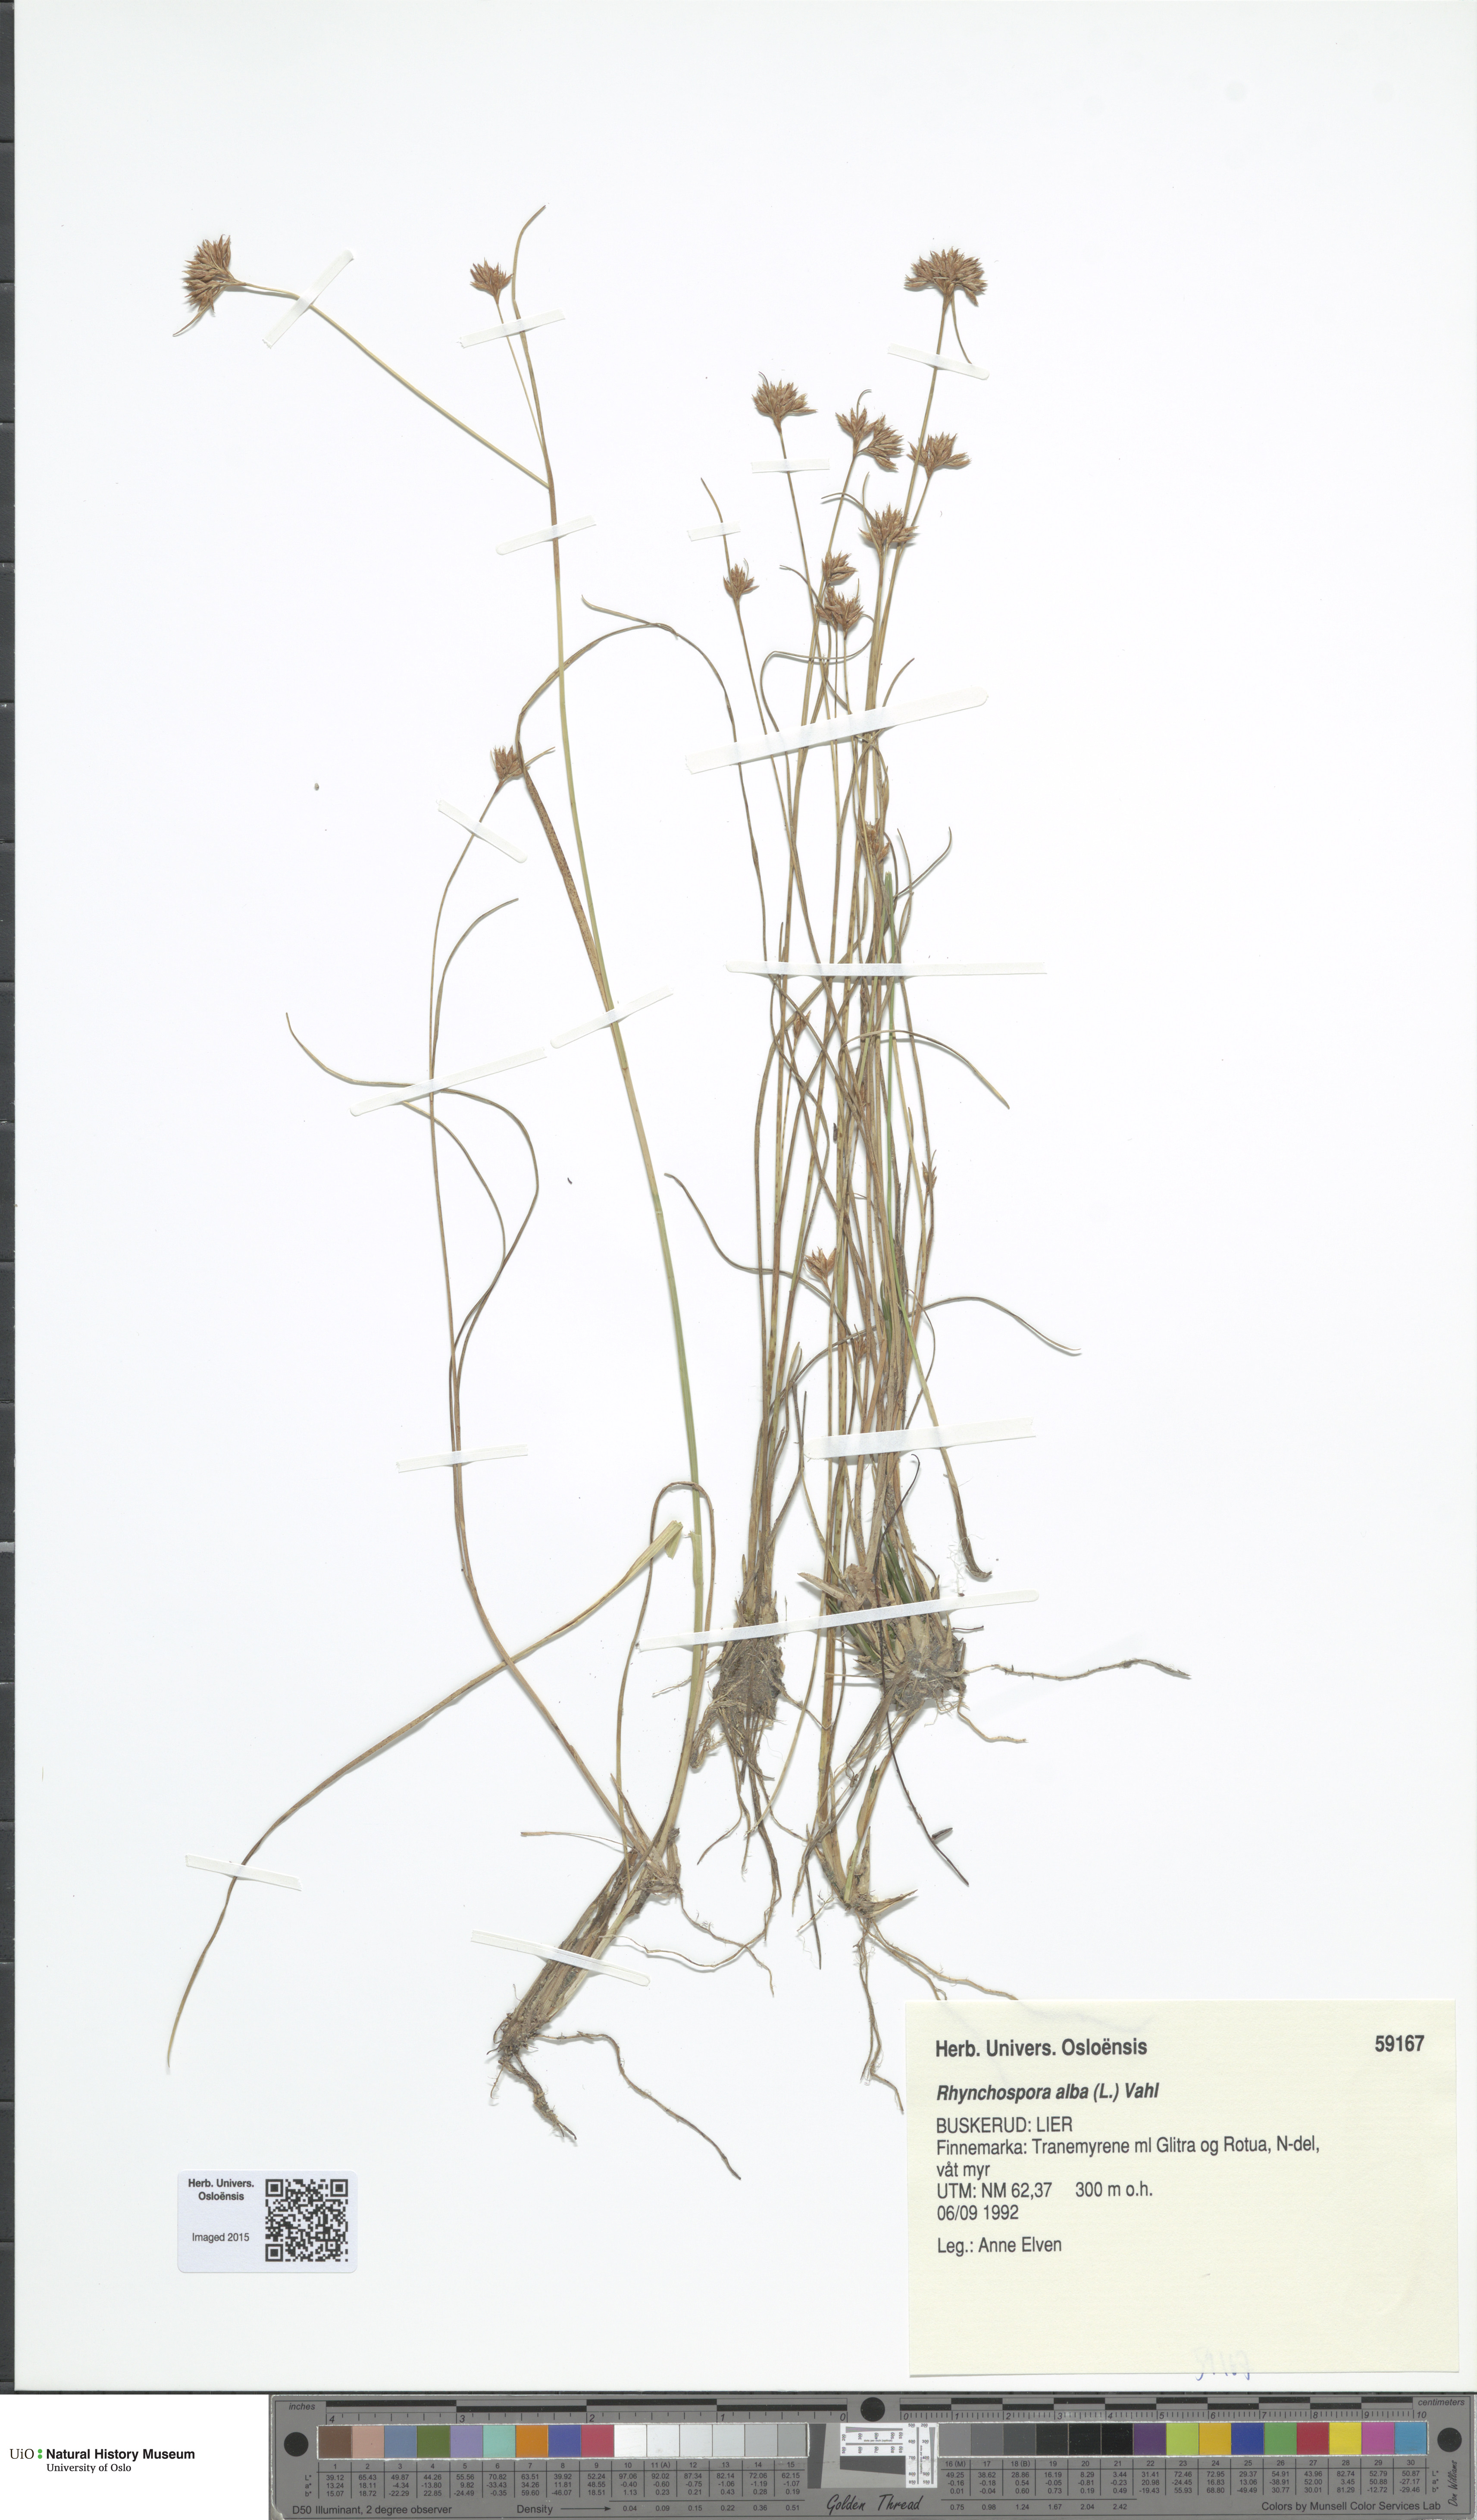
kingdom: Plantae
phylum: Tracheophyta
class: Liliopsida
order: Poales
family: Cyperaceae
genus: Rhynchospora
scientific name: Rhynchospora alba
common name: White beak-sedge
